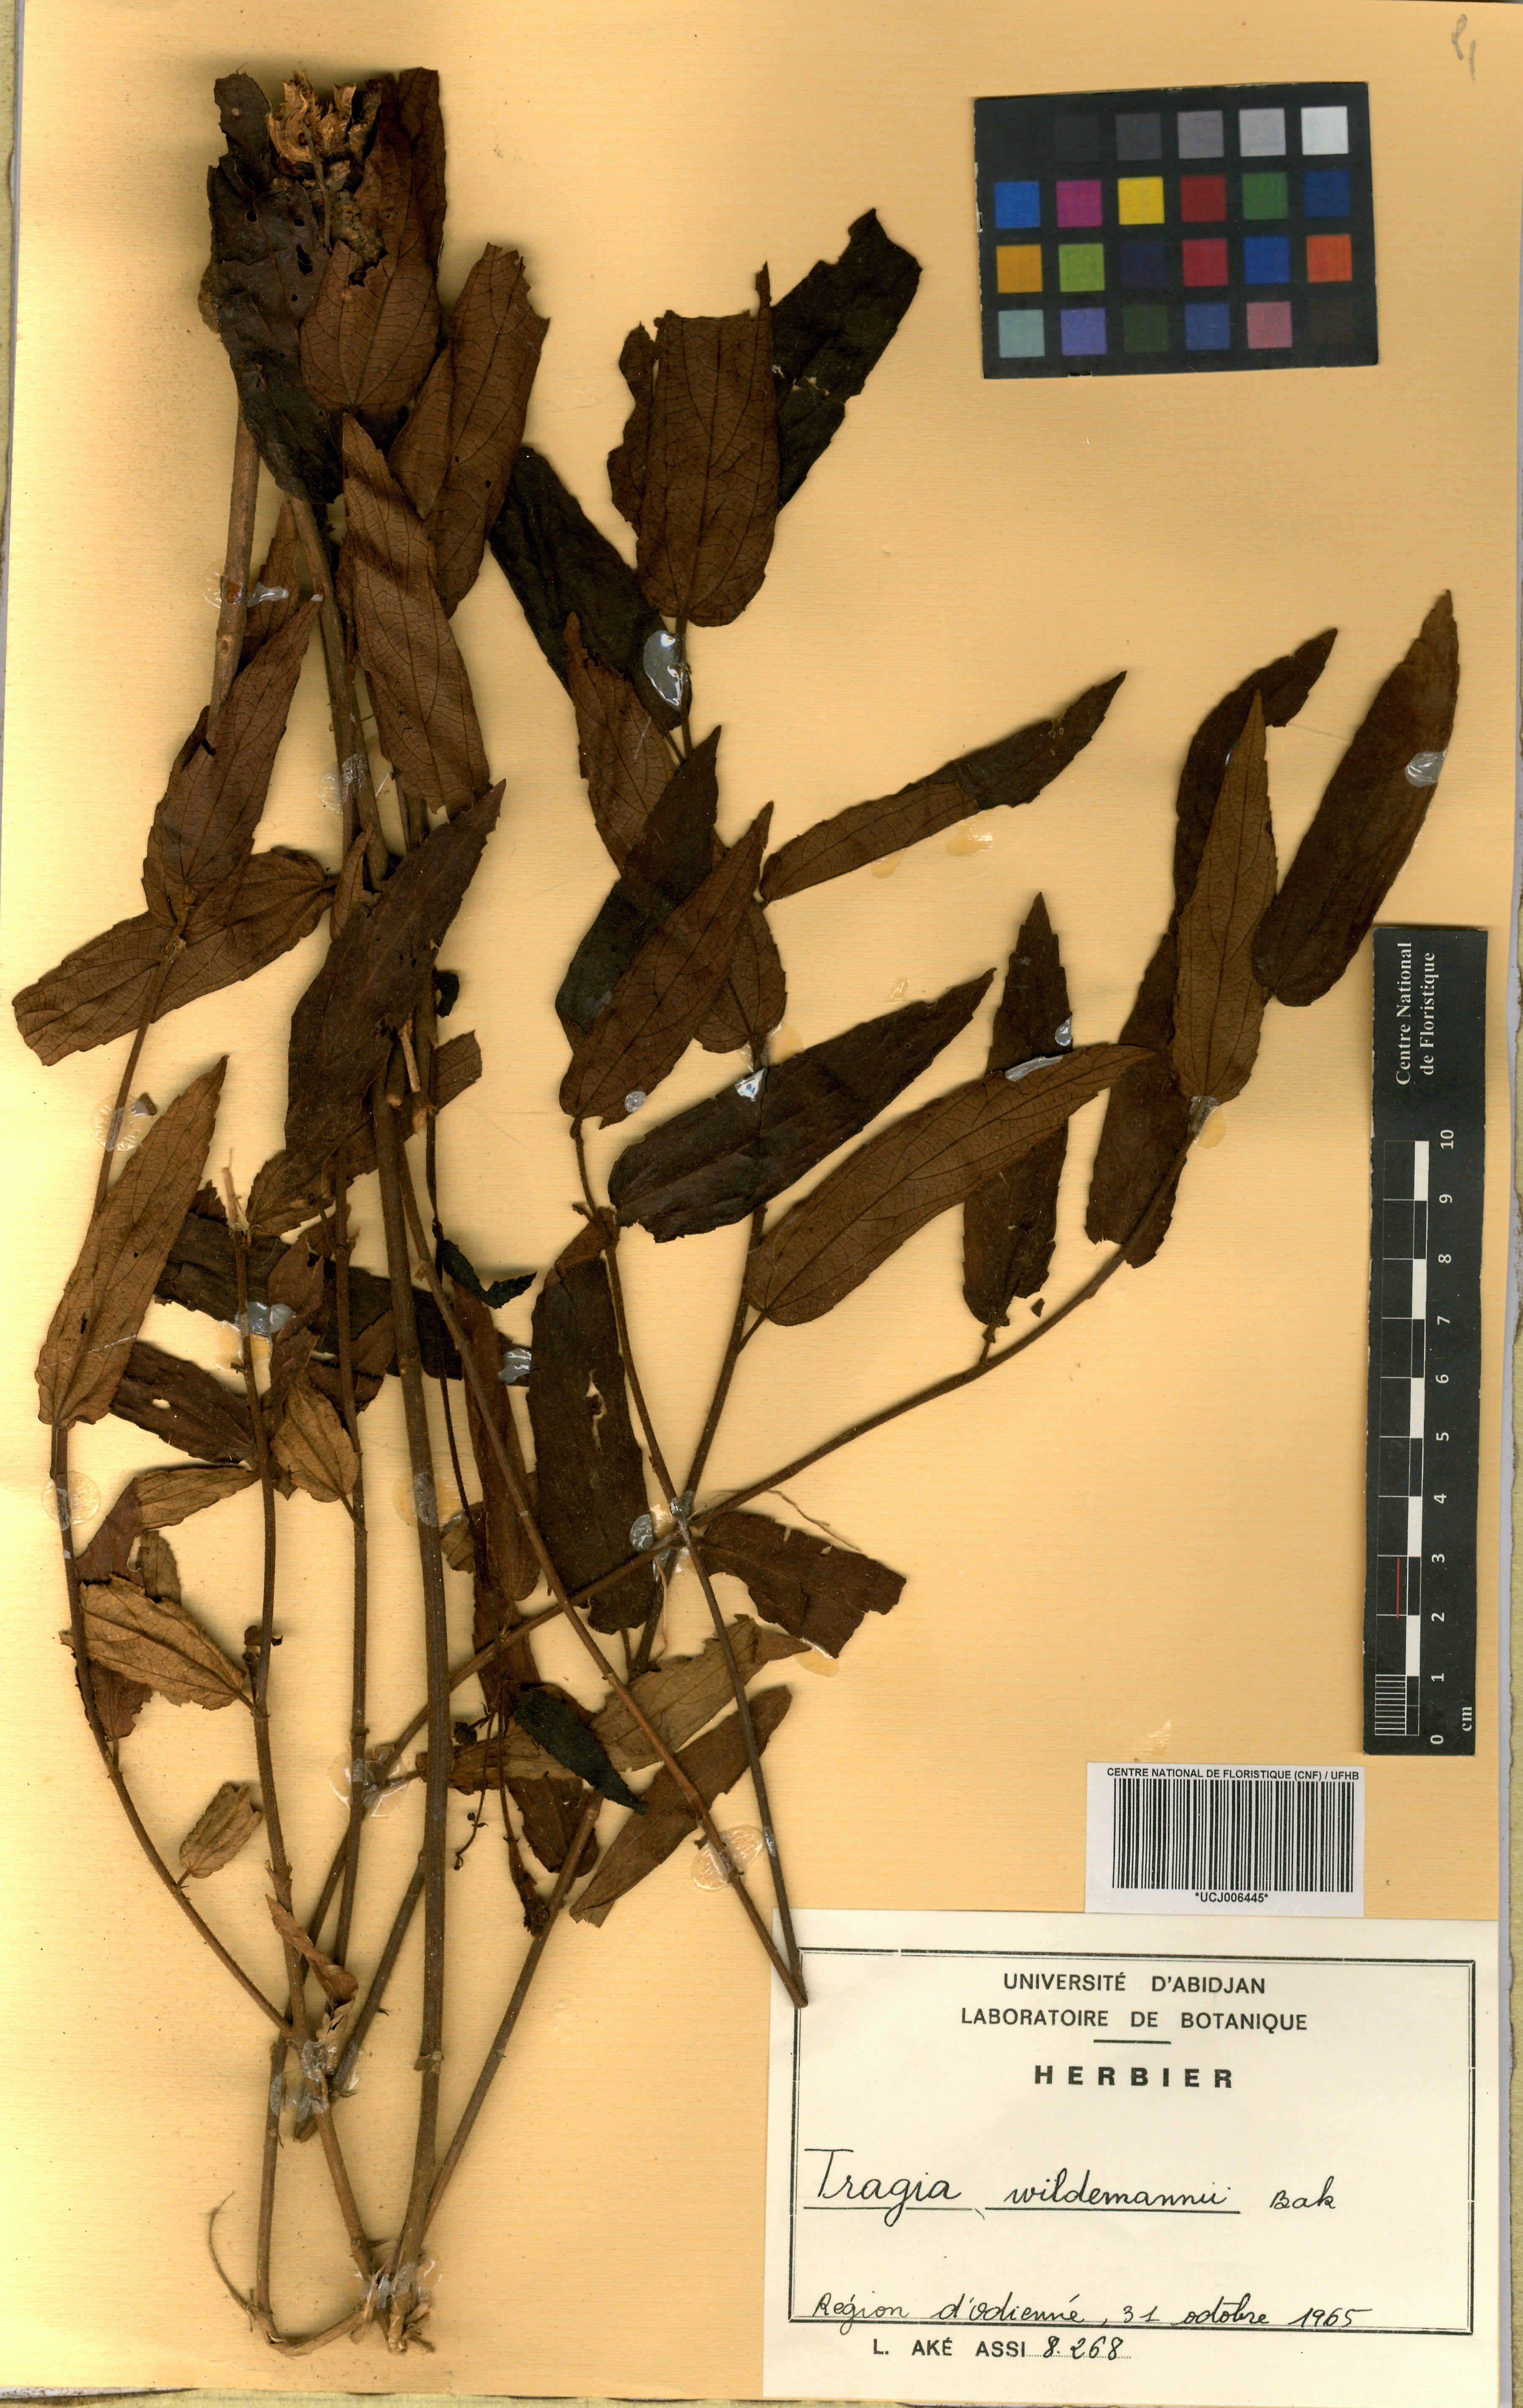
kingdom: Plantae
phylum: Tracheophyta
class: Magnoliopsida
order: Malpighiales
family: Euphorbiaceae
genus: Tragia
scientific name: Tragia wildemanii
